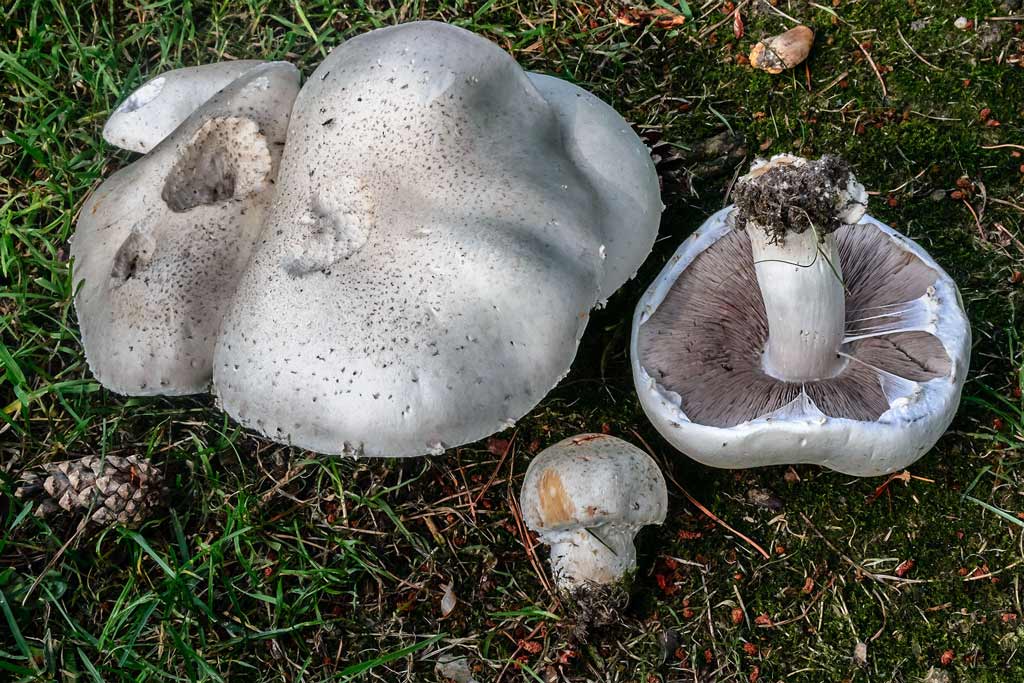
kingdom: Fungi
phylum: Basidiomycota
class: Agaricomycetes
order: Agaricales
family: Agaricaceae
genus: Agaricus
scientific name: Agaricus
